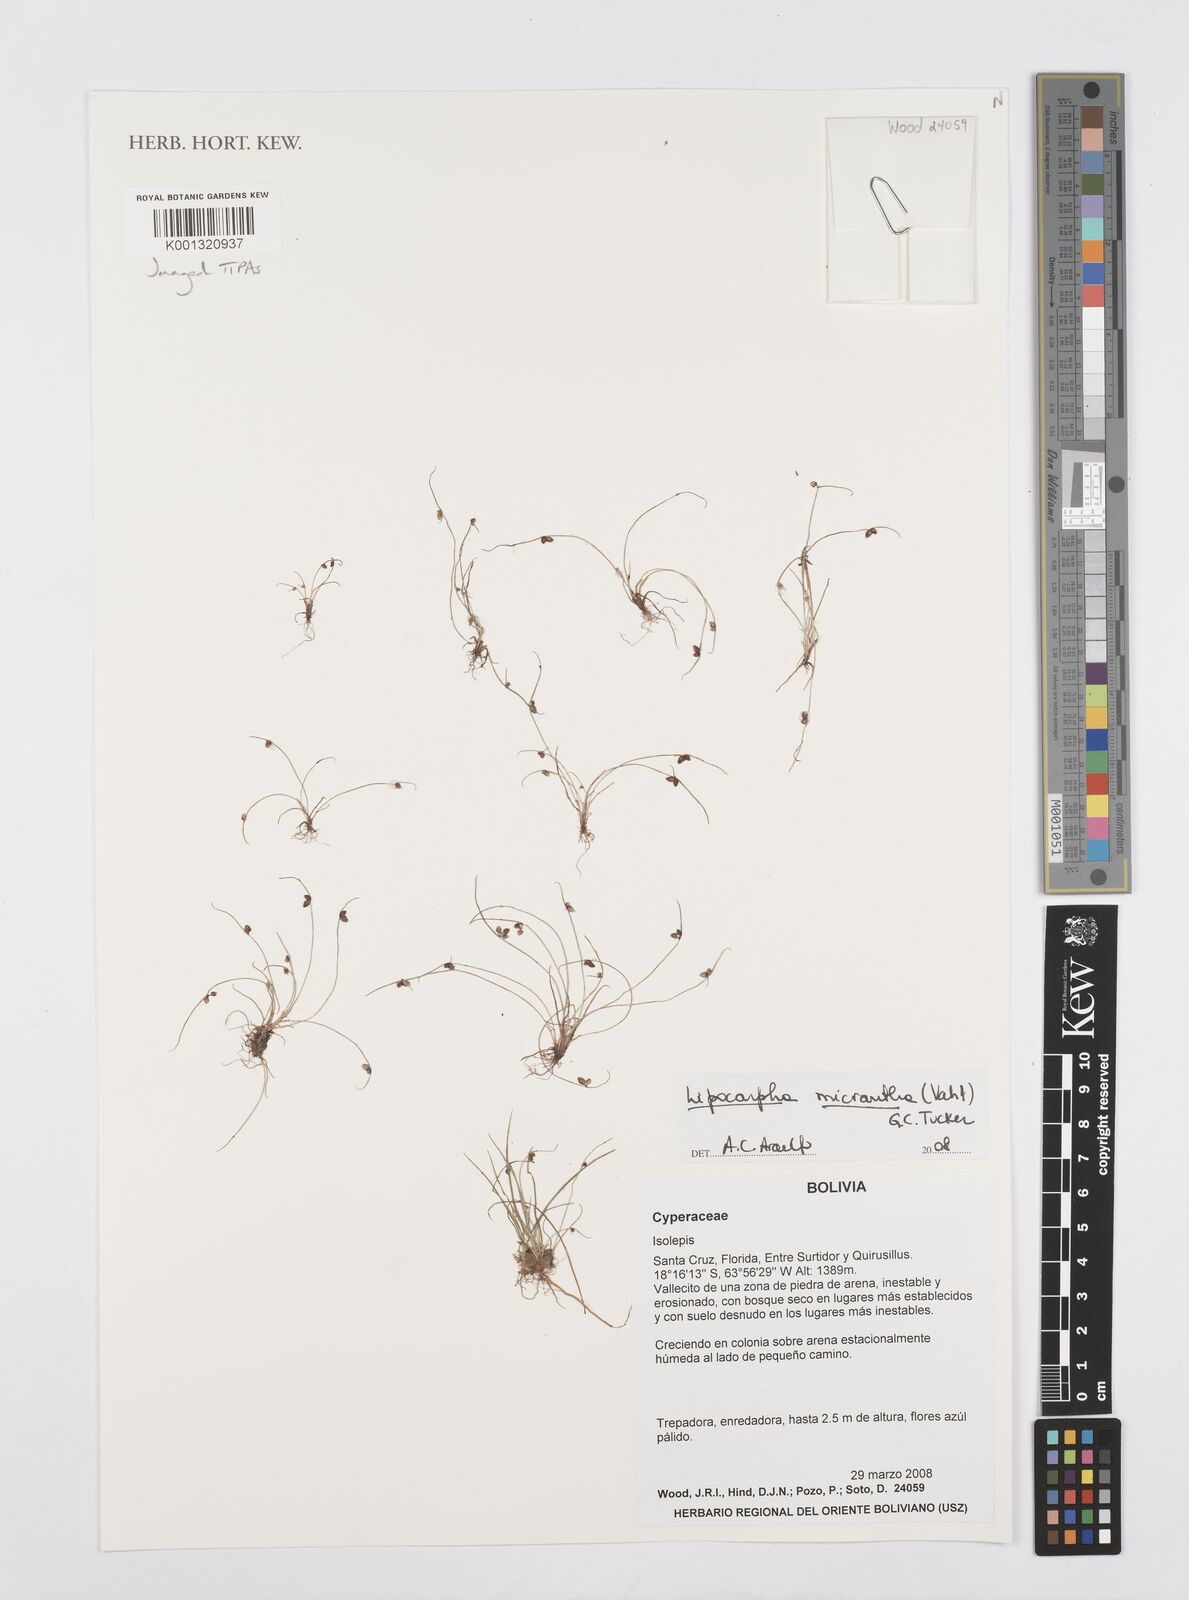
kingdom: Plantae
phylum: Tracheophyta
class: Liliopsida
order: Poales
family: Cyperaceae
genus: Cyperus
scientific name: Cyperus dentatus
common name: Dentate umbrella sedge
